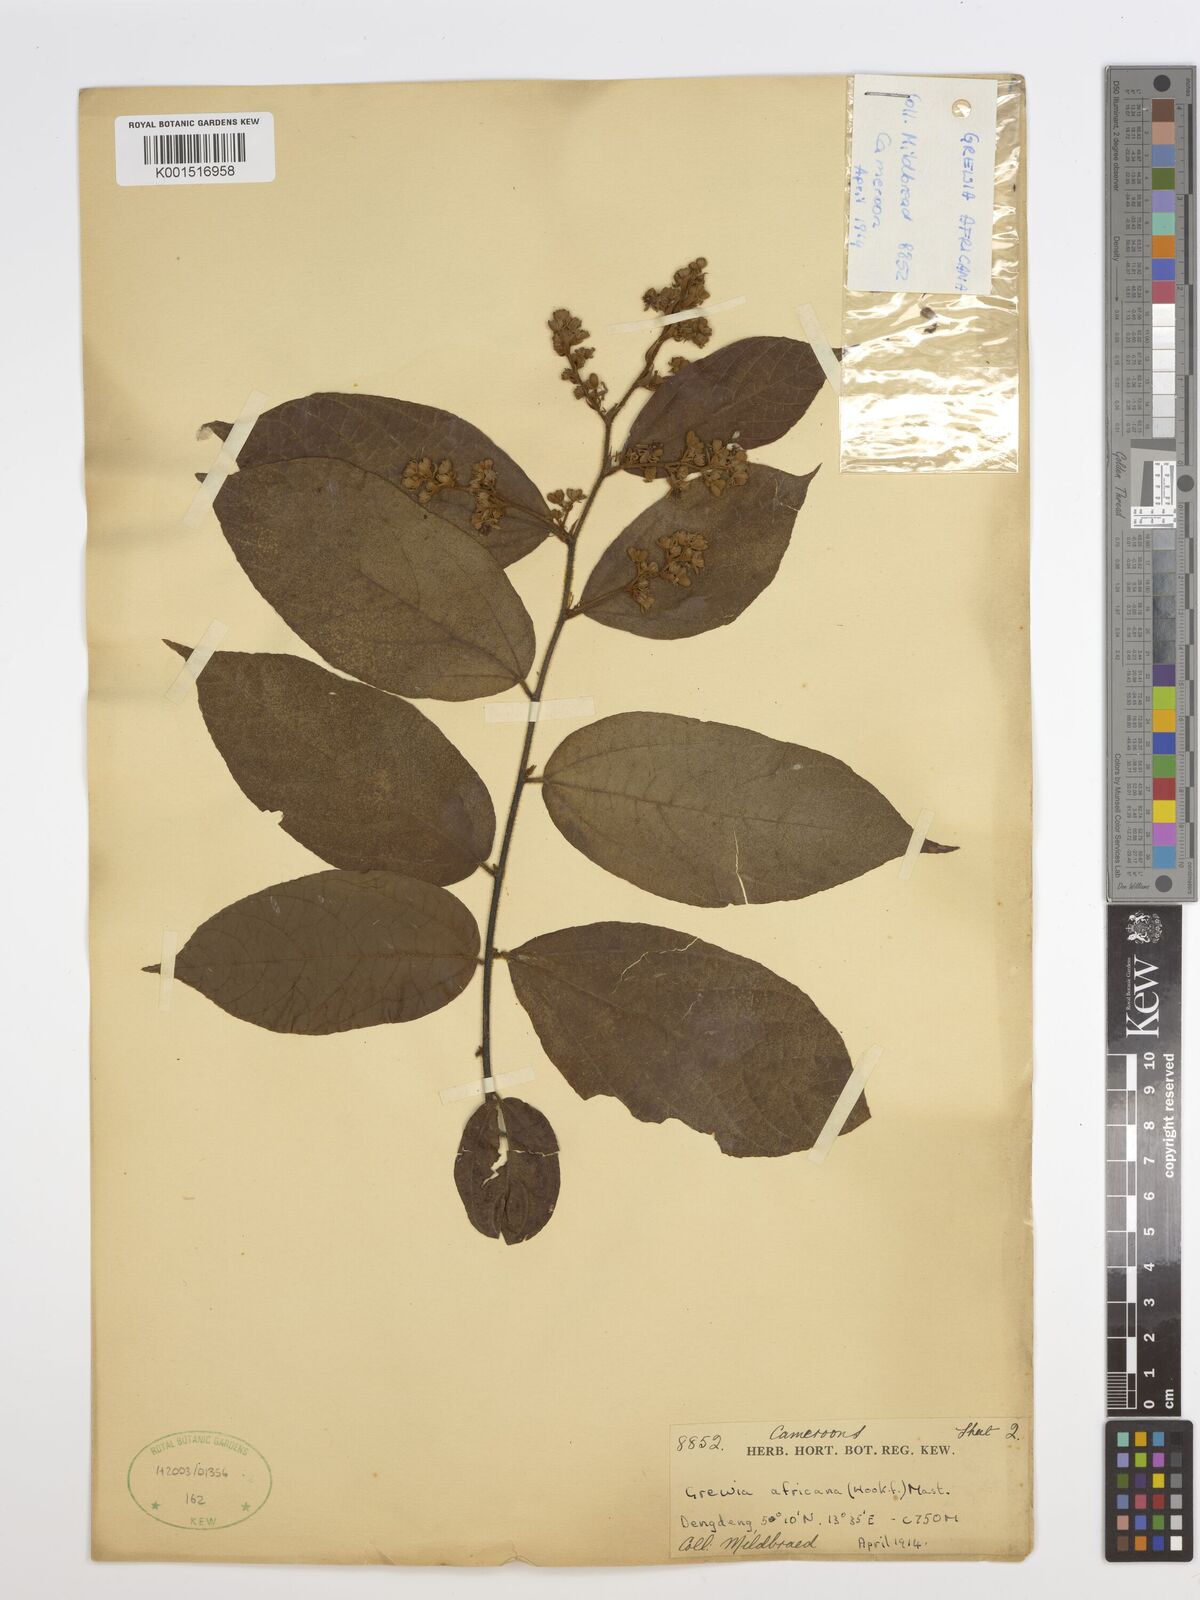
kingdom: Plantae
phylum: Tracheophyta
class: Magnoliopsida
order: Malvales
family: Malvaceae
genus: Grewia
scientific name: Grewia
